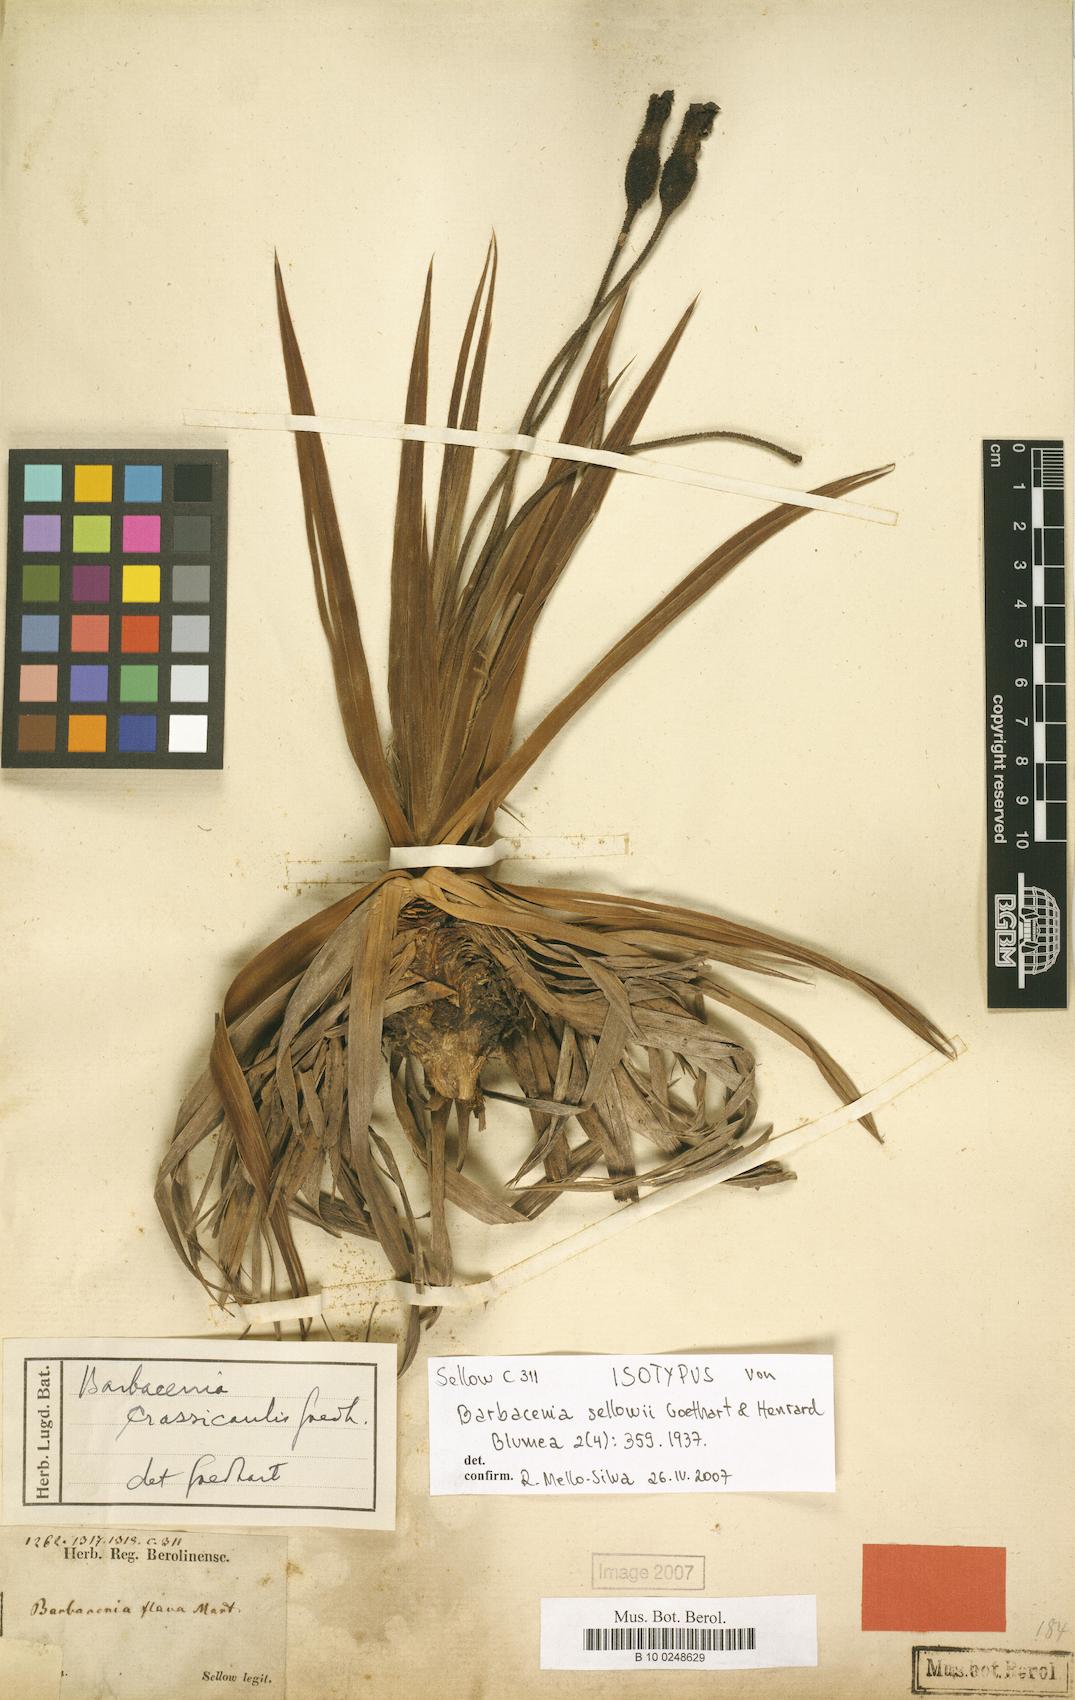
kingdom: Plantae
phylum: Tracheophyta
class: Liliopsida
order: Pandanales
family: Velloziaceae
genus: Barbacenia
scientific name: Barbacenia flava
